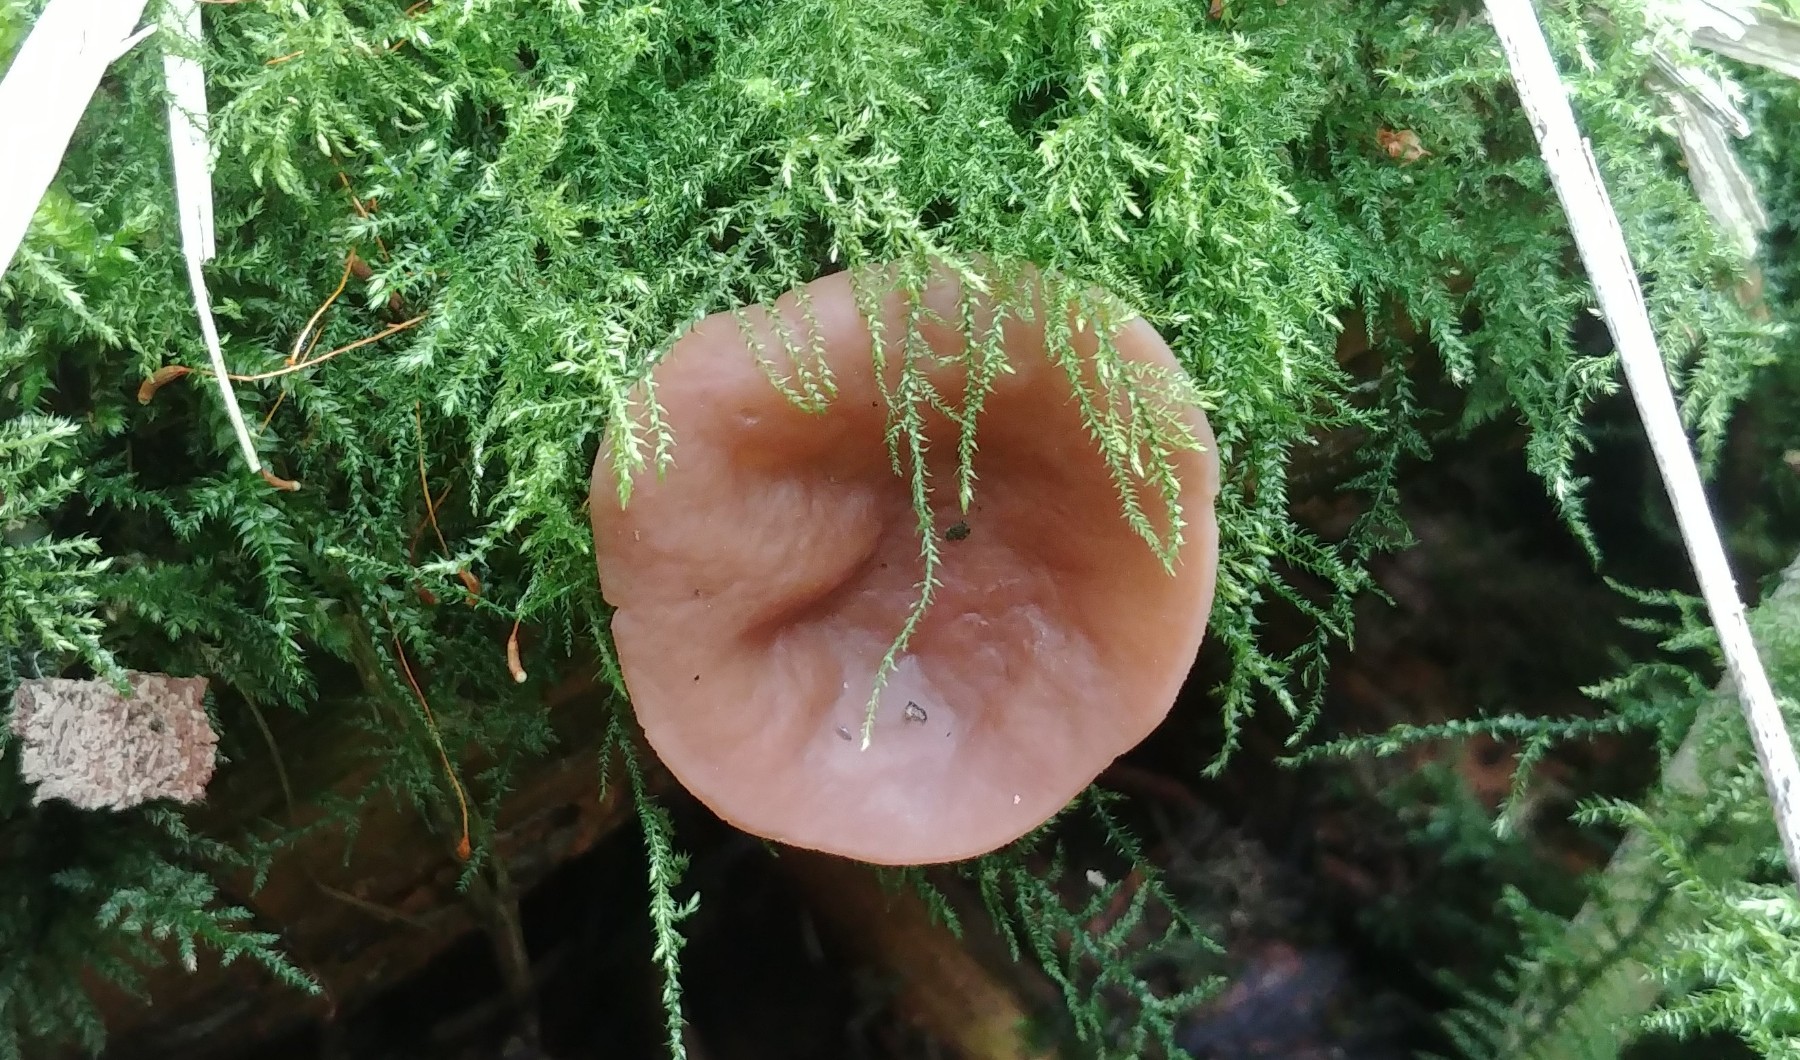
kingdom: Fungi
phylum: Ascomycota
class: Pezizomycetes
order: Pezizales
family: Discinaceae
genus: Discina
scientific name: Discina ancilis
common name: udbredt stenmorkel
